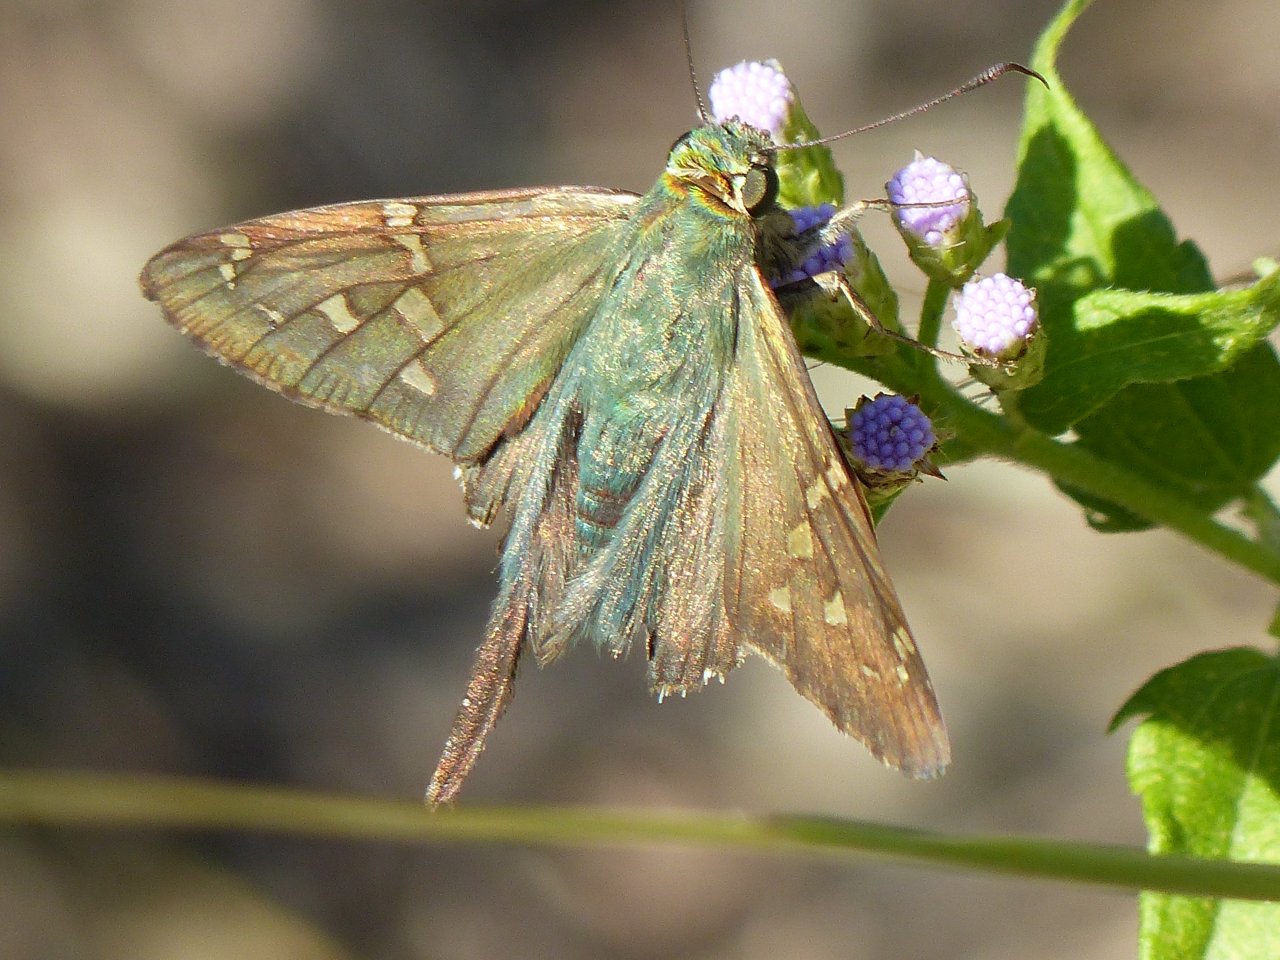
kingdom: Animalia
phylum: Arthropoda
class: Insecta
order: Lepidoptera
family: Hesperiidae
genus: Urbanus
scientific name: Urbanus proteus
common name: Long-tailed Skipper
